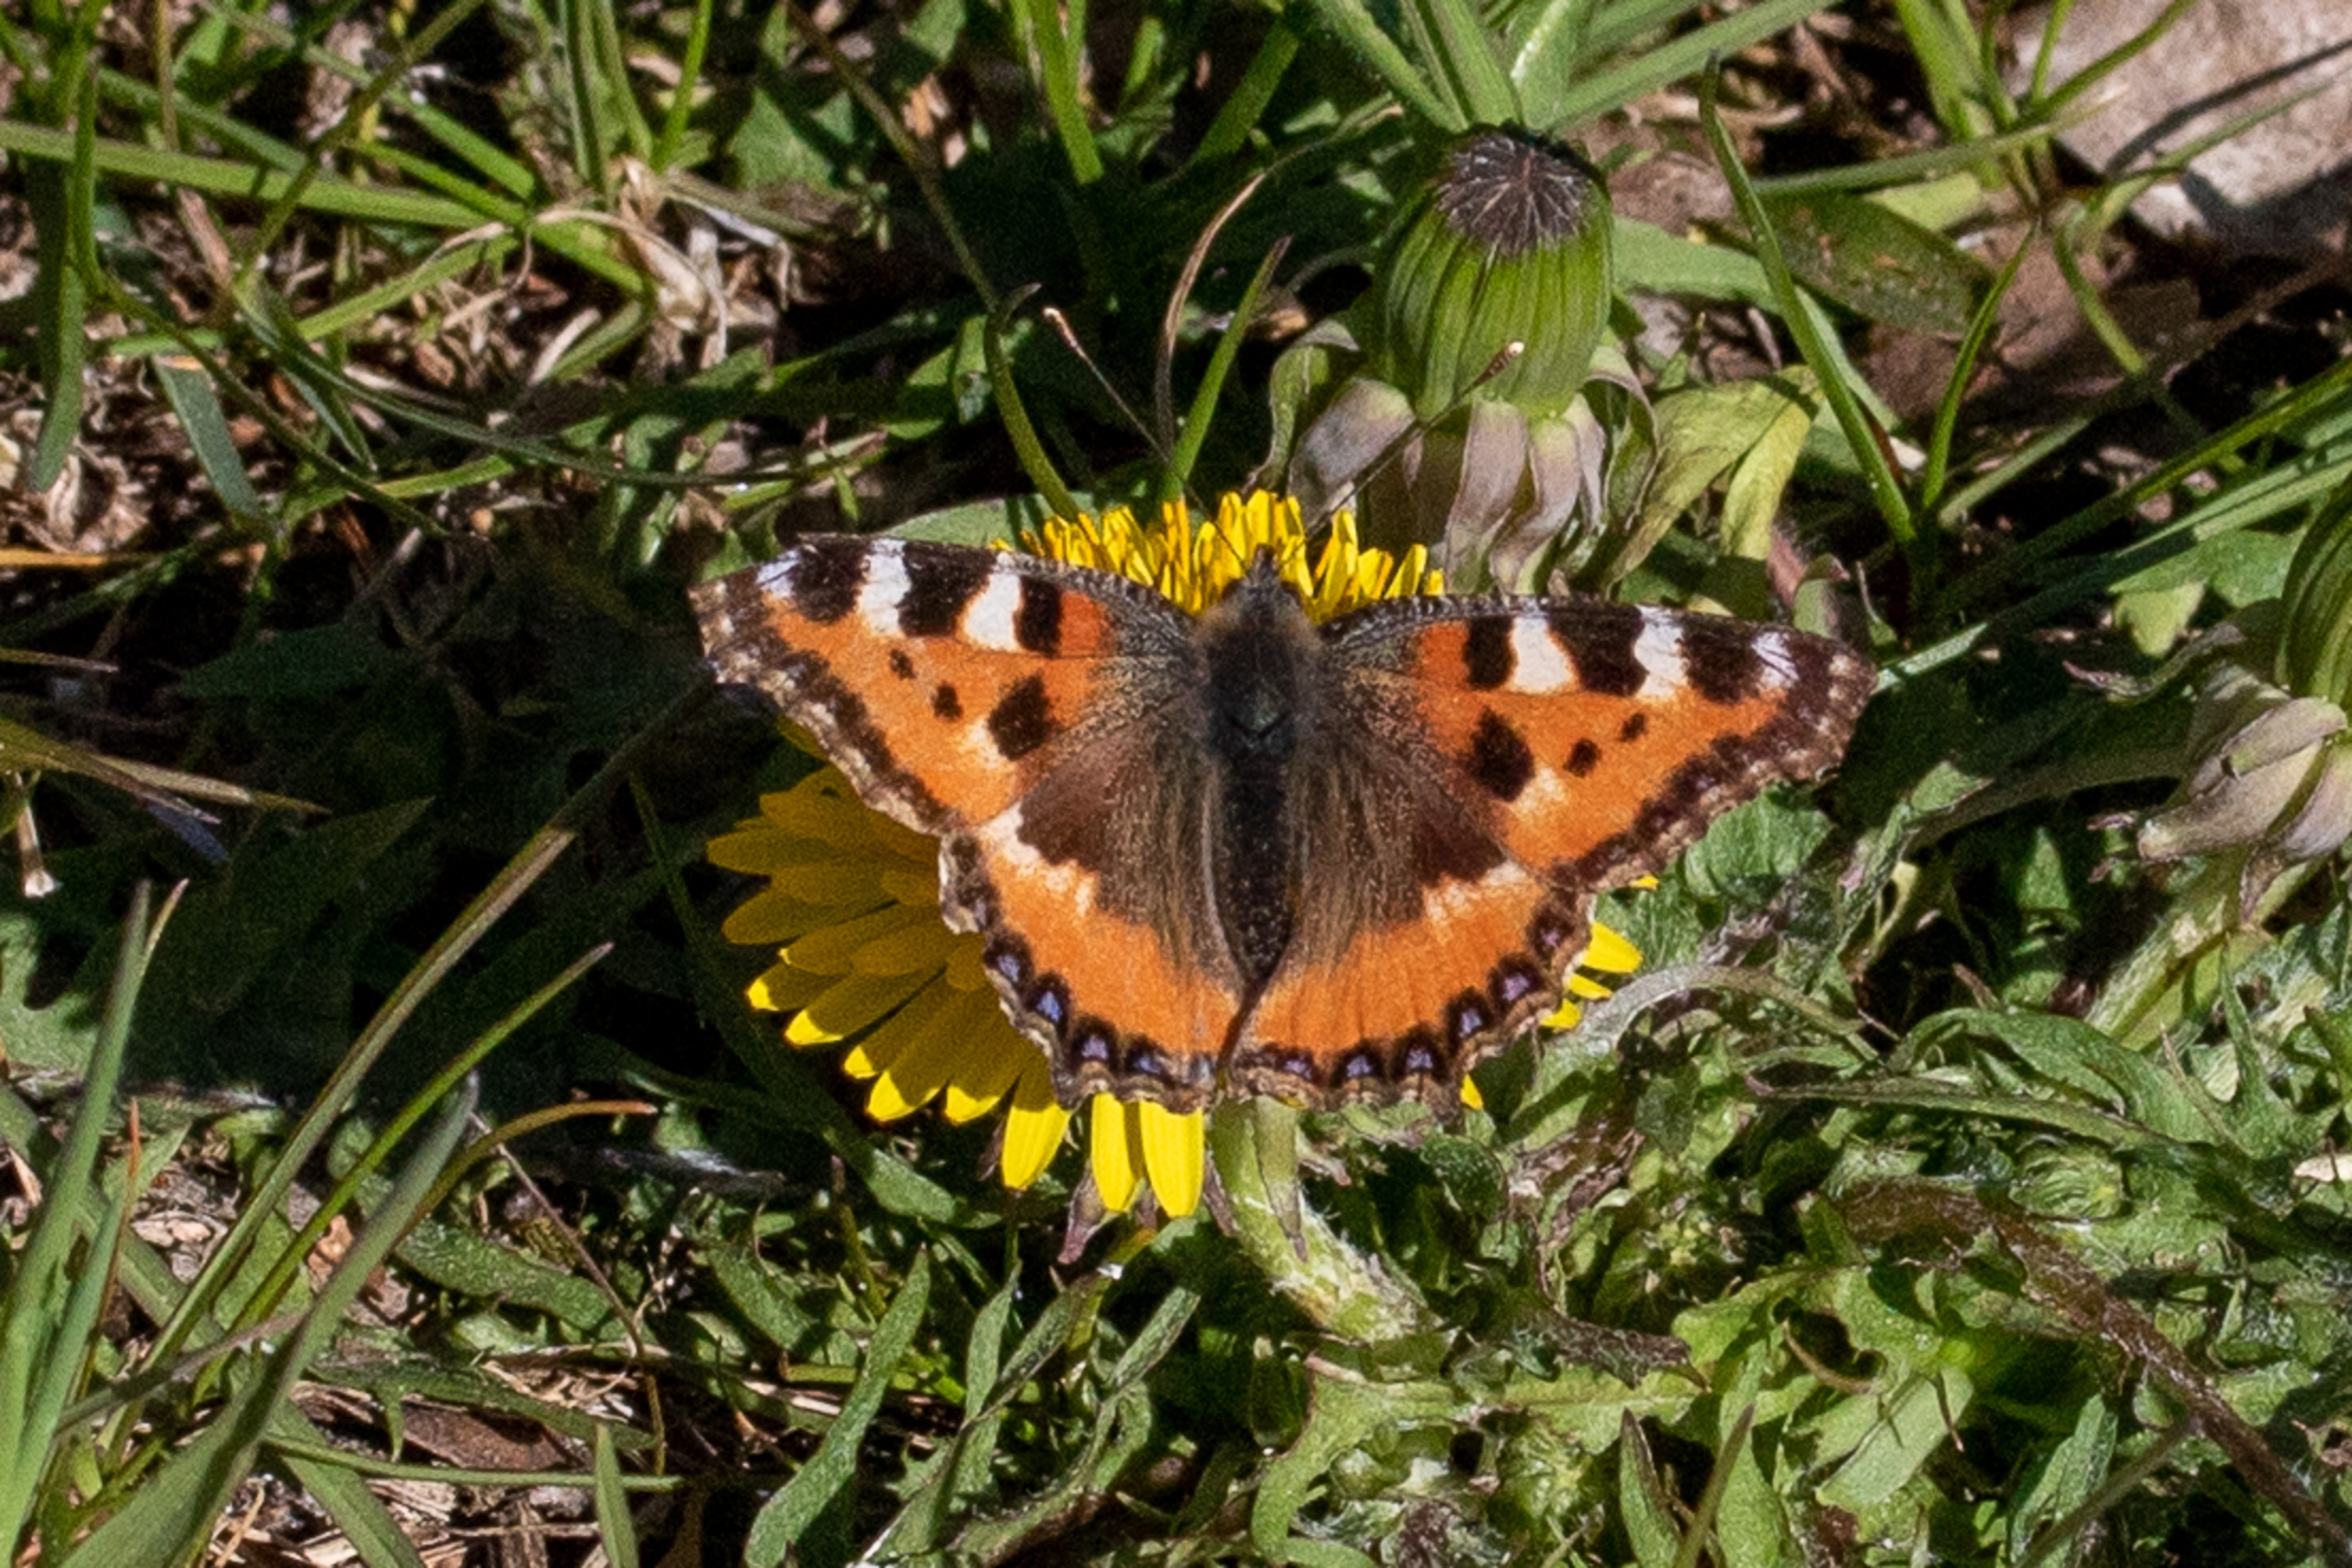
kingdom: Animalia
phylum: Arthropoda
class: Insecta
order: Lepidoptera
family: Nymphalidae
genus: Aglais
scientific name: Aglais urticae
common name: Nældens takvinge
